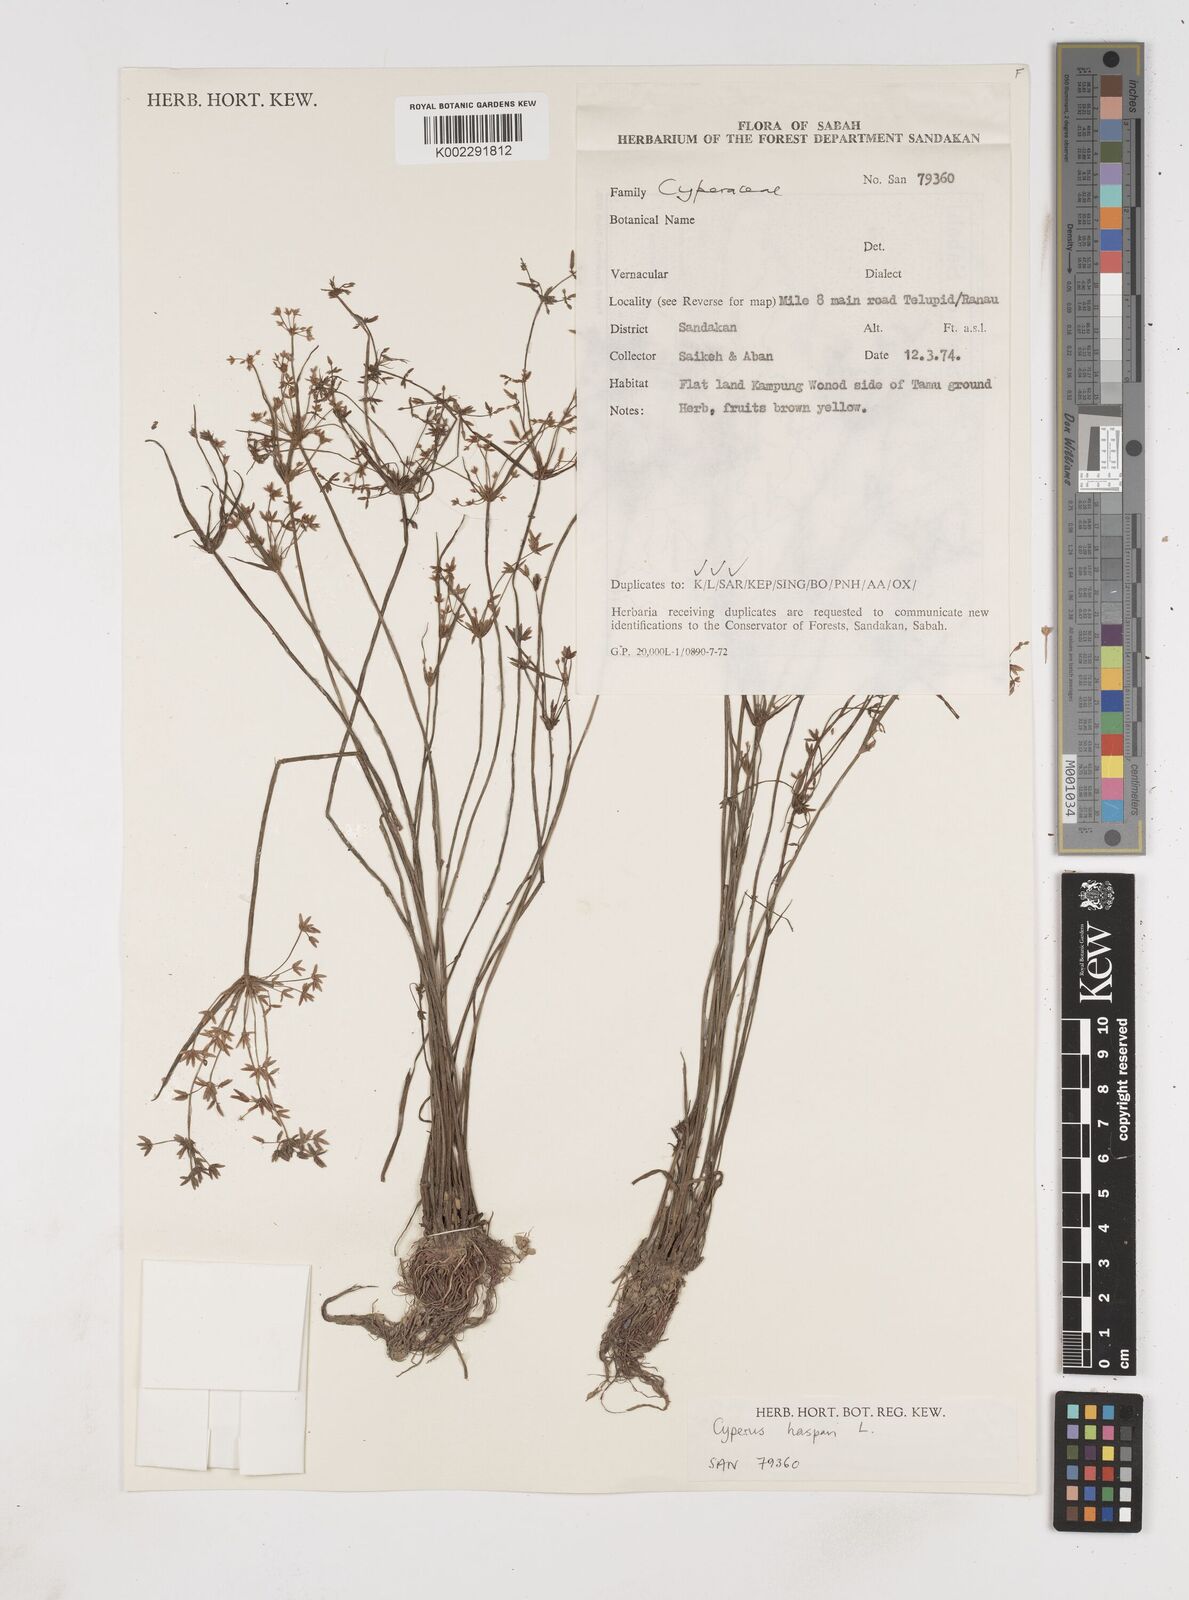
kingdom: Plantae
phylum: Tracheophyta
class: Liliopsida
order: Poales
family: Cyperaceae
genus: Cyperus
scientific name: Cyperus haspan
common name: Haspan flatsedge
